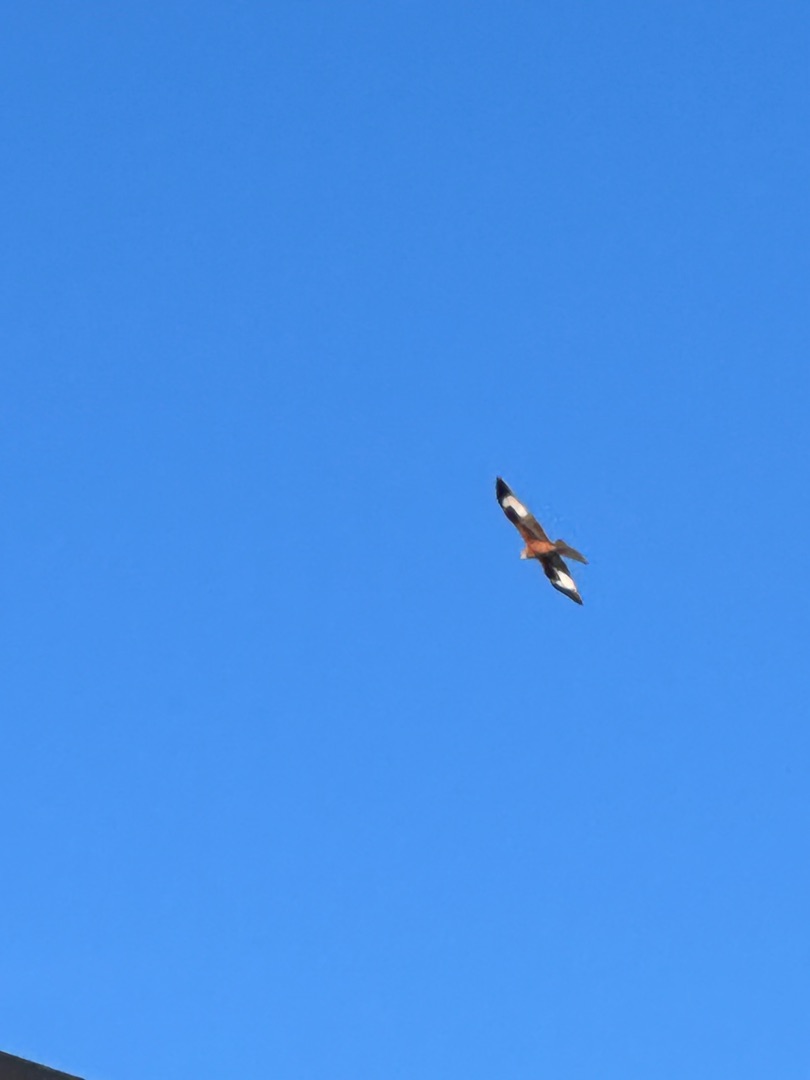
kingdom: Animalia
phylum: Chordata
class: Aves
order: Accipitriformes
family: Accipitridae
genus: Milvus
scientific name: Milvus milvus
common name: Rød glente
